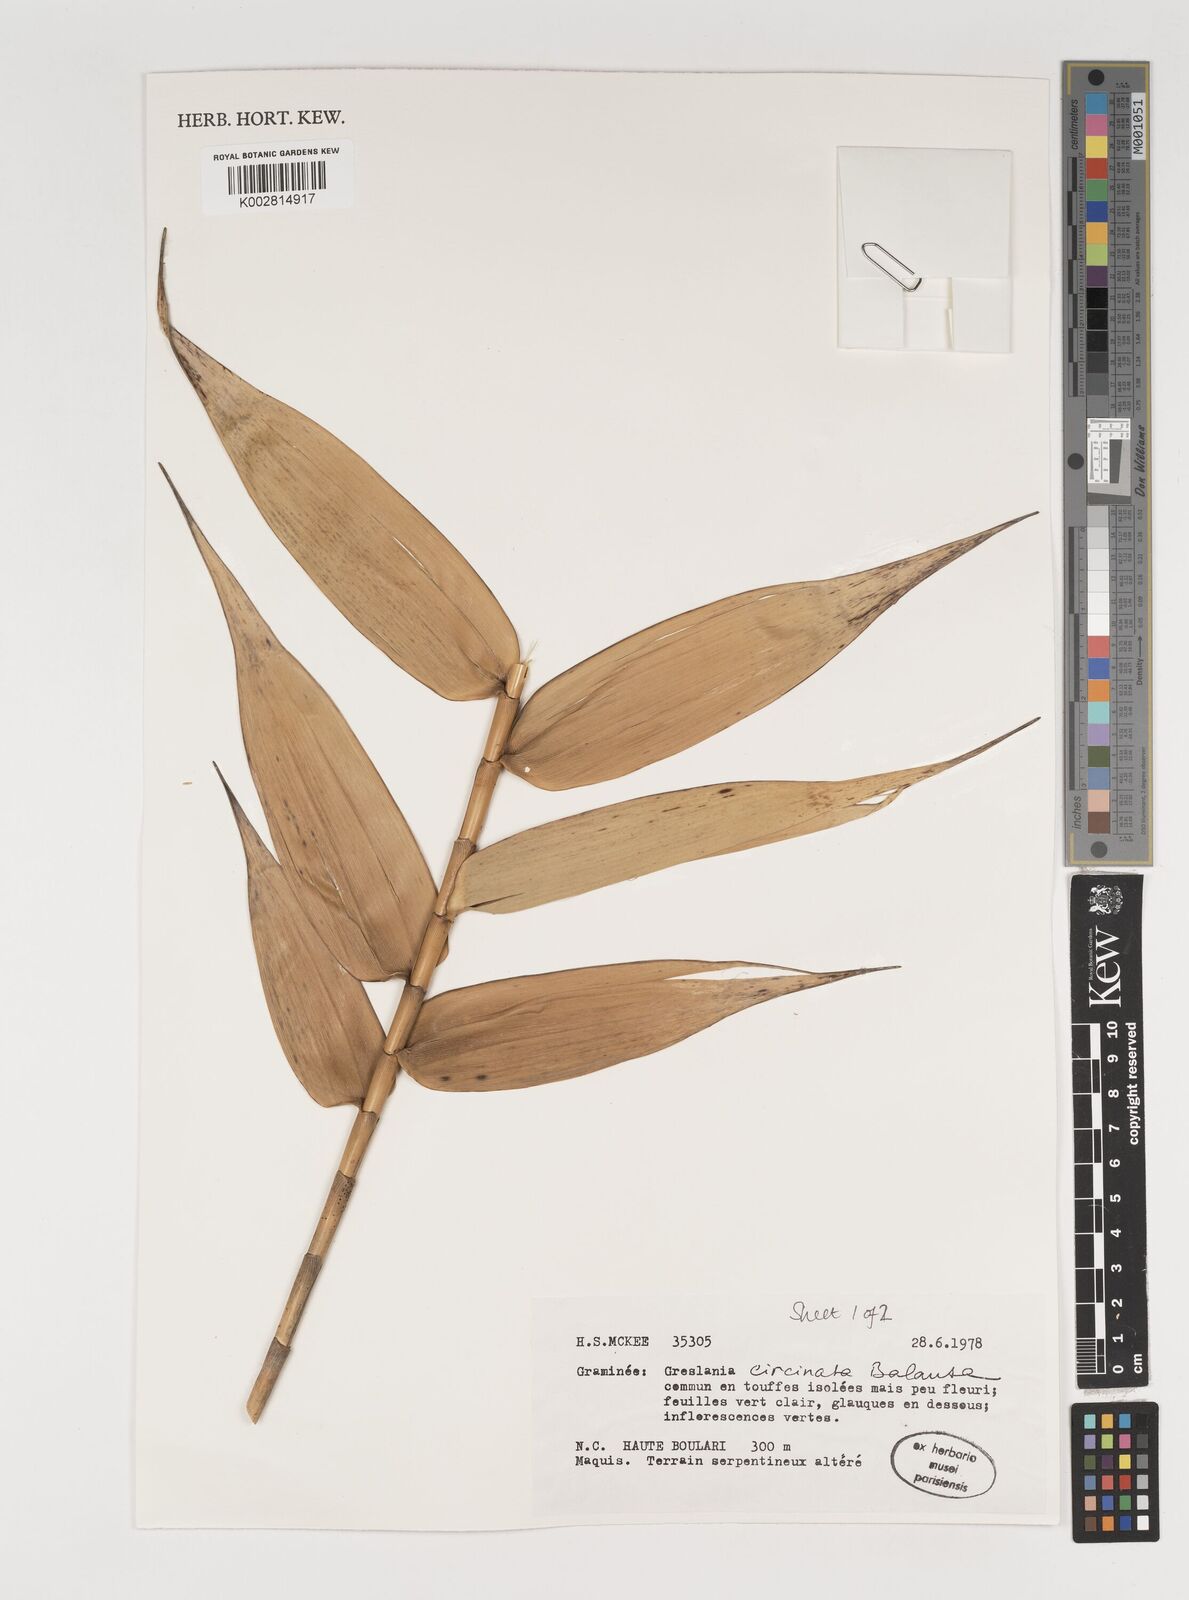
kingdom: Plantae
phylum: Tracheophyta
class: Liliopsida
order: Poales
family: Poaceae
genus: Greslania
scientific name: Greslania circinata
